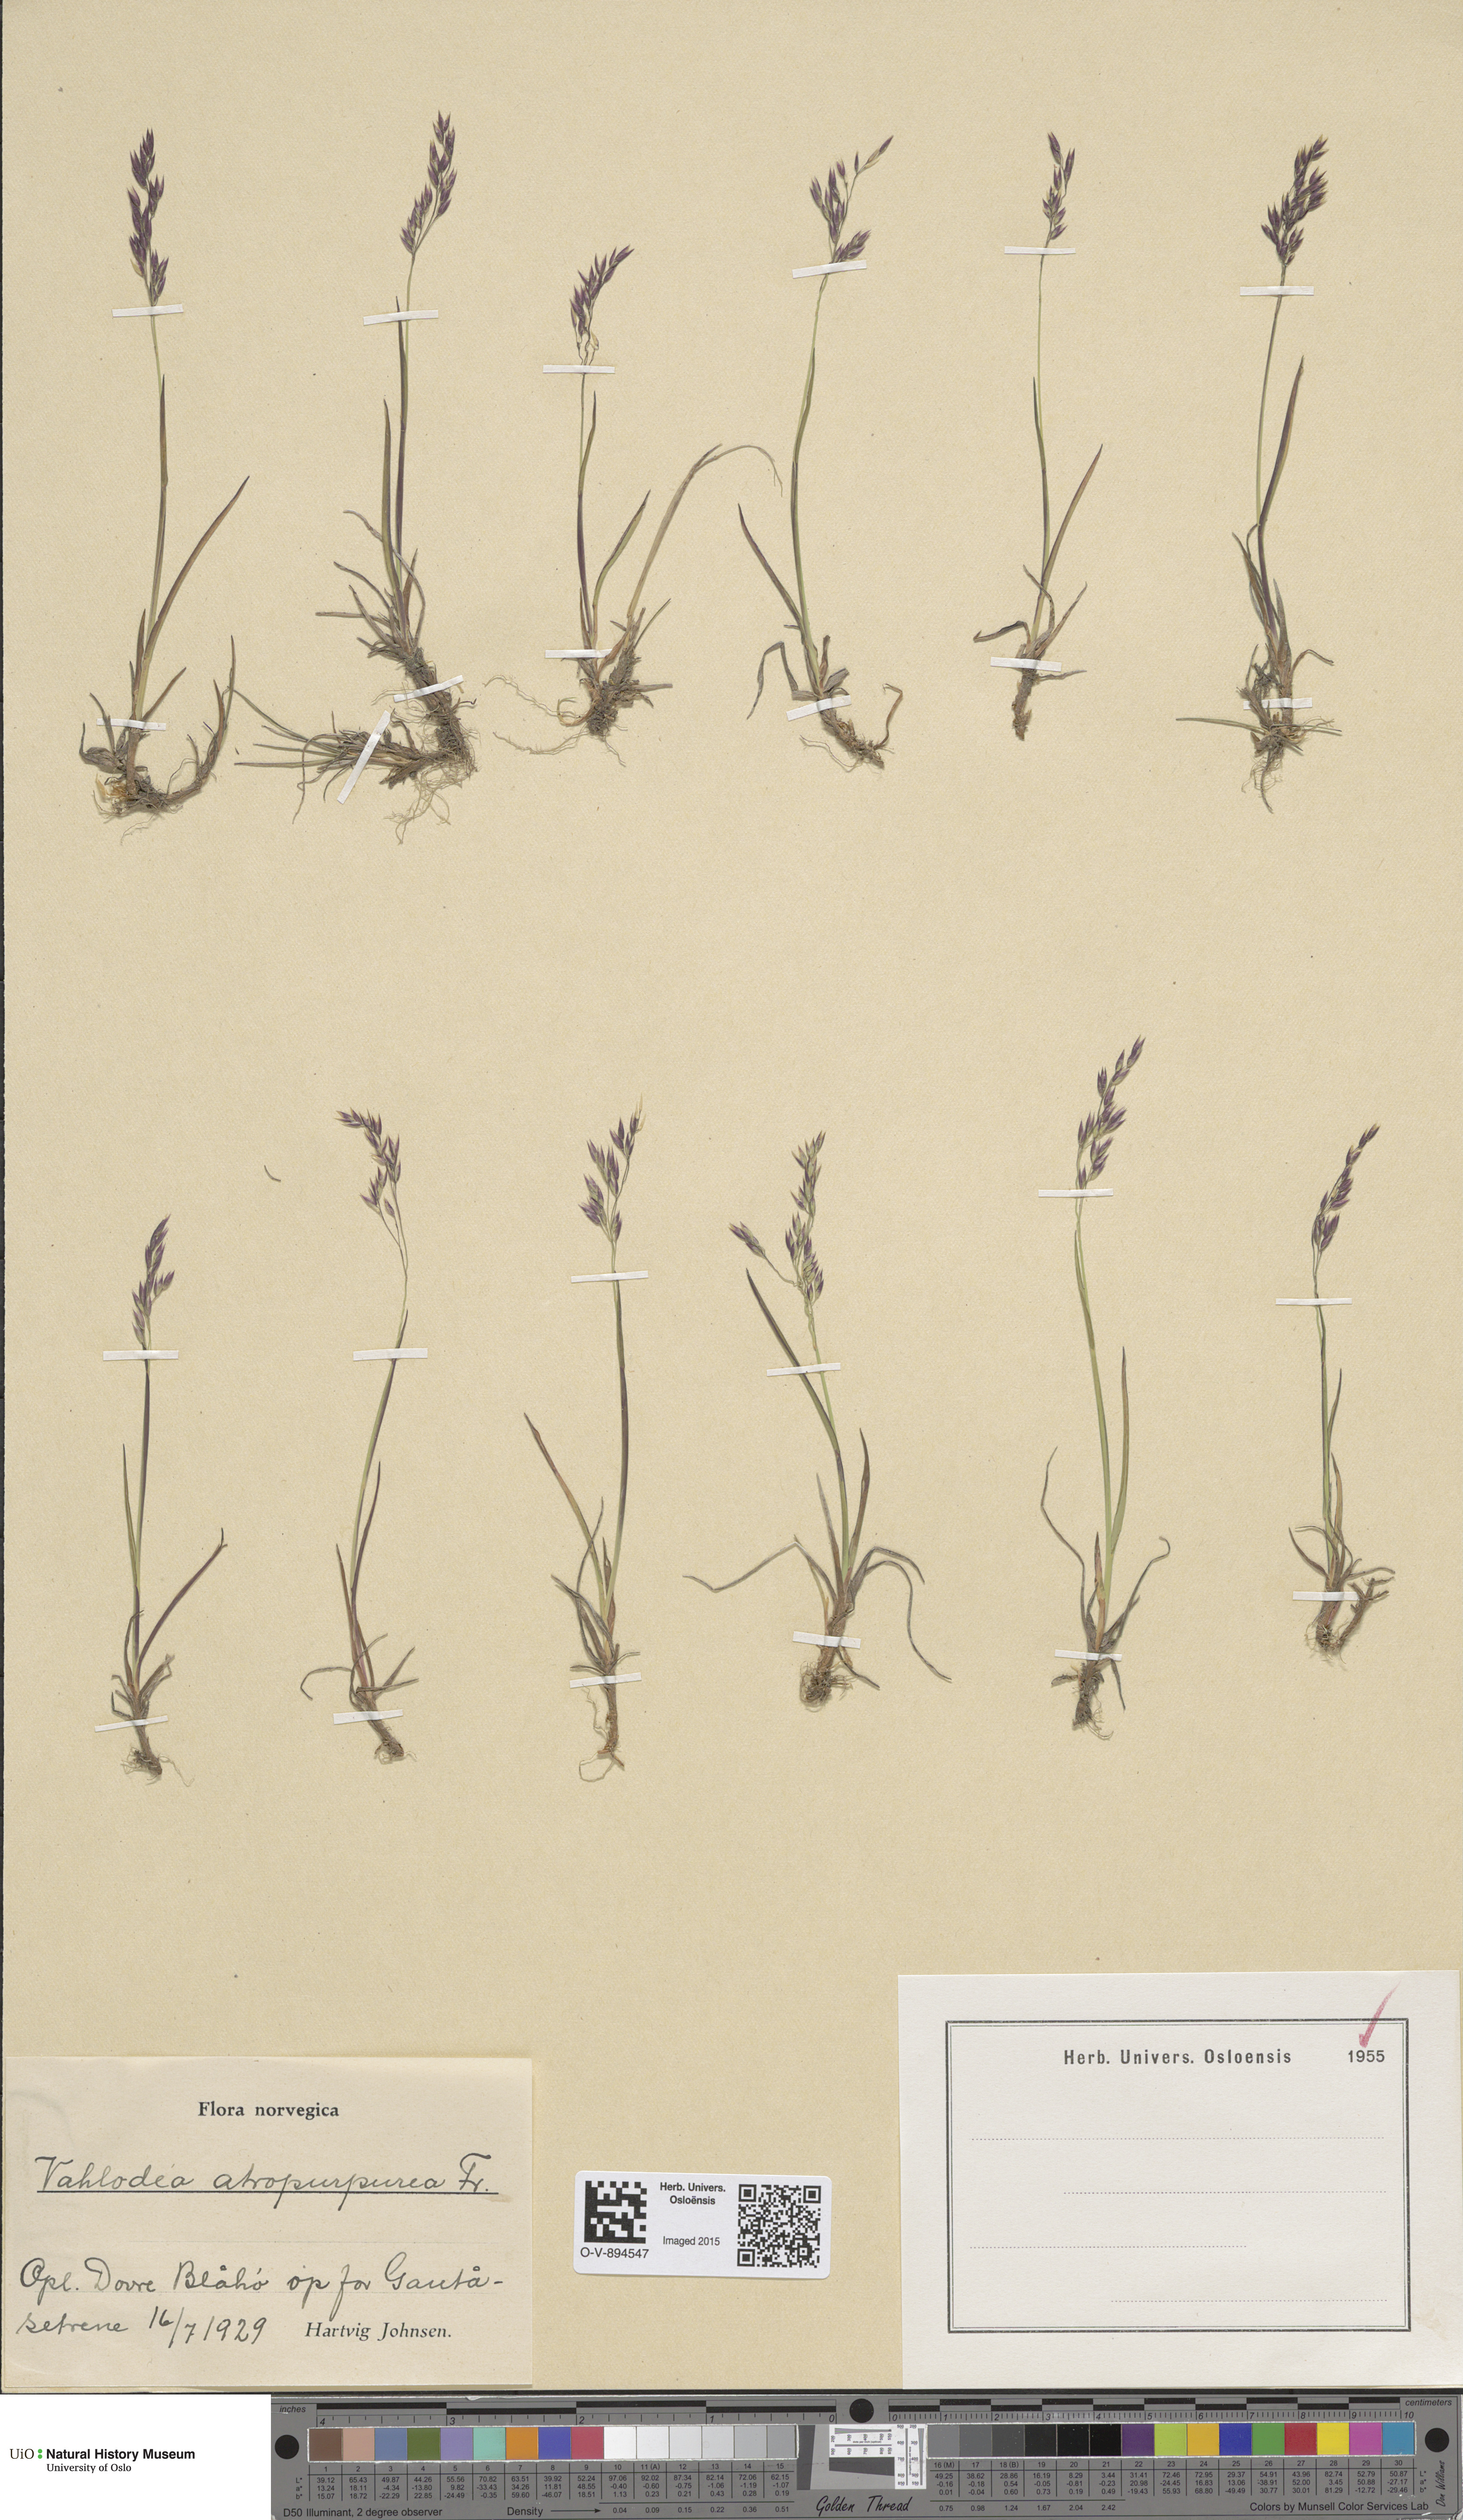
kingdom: Plantae
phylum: Tracheophyta
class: Liliopsida
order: Poales
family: Poaceae
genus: Vahlodea
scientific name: Vahlodea atropurpurea
